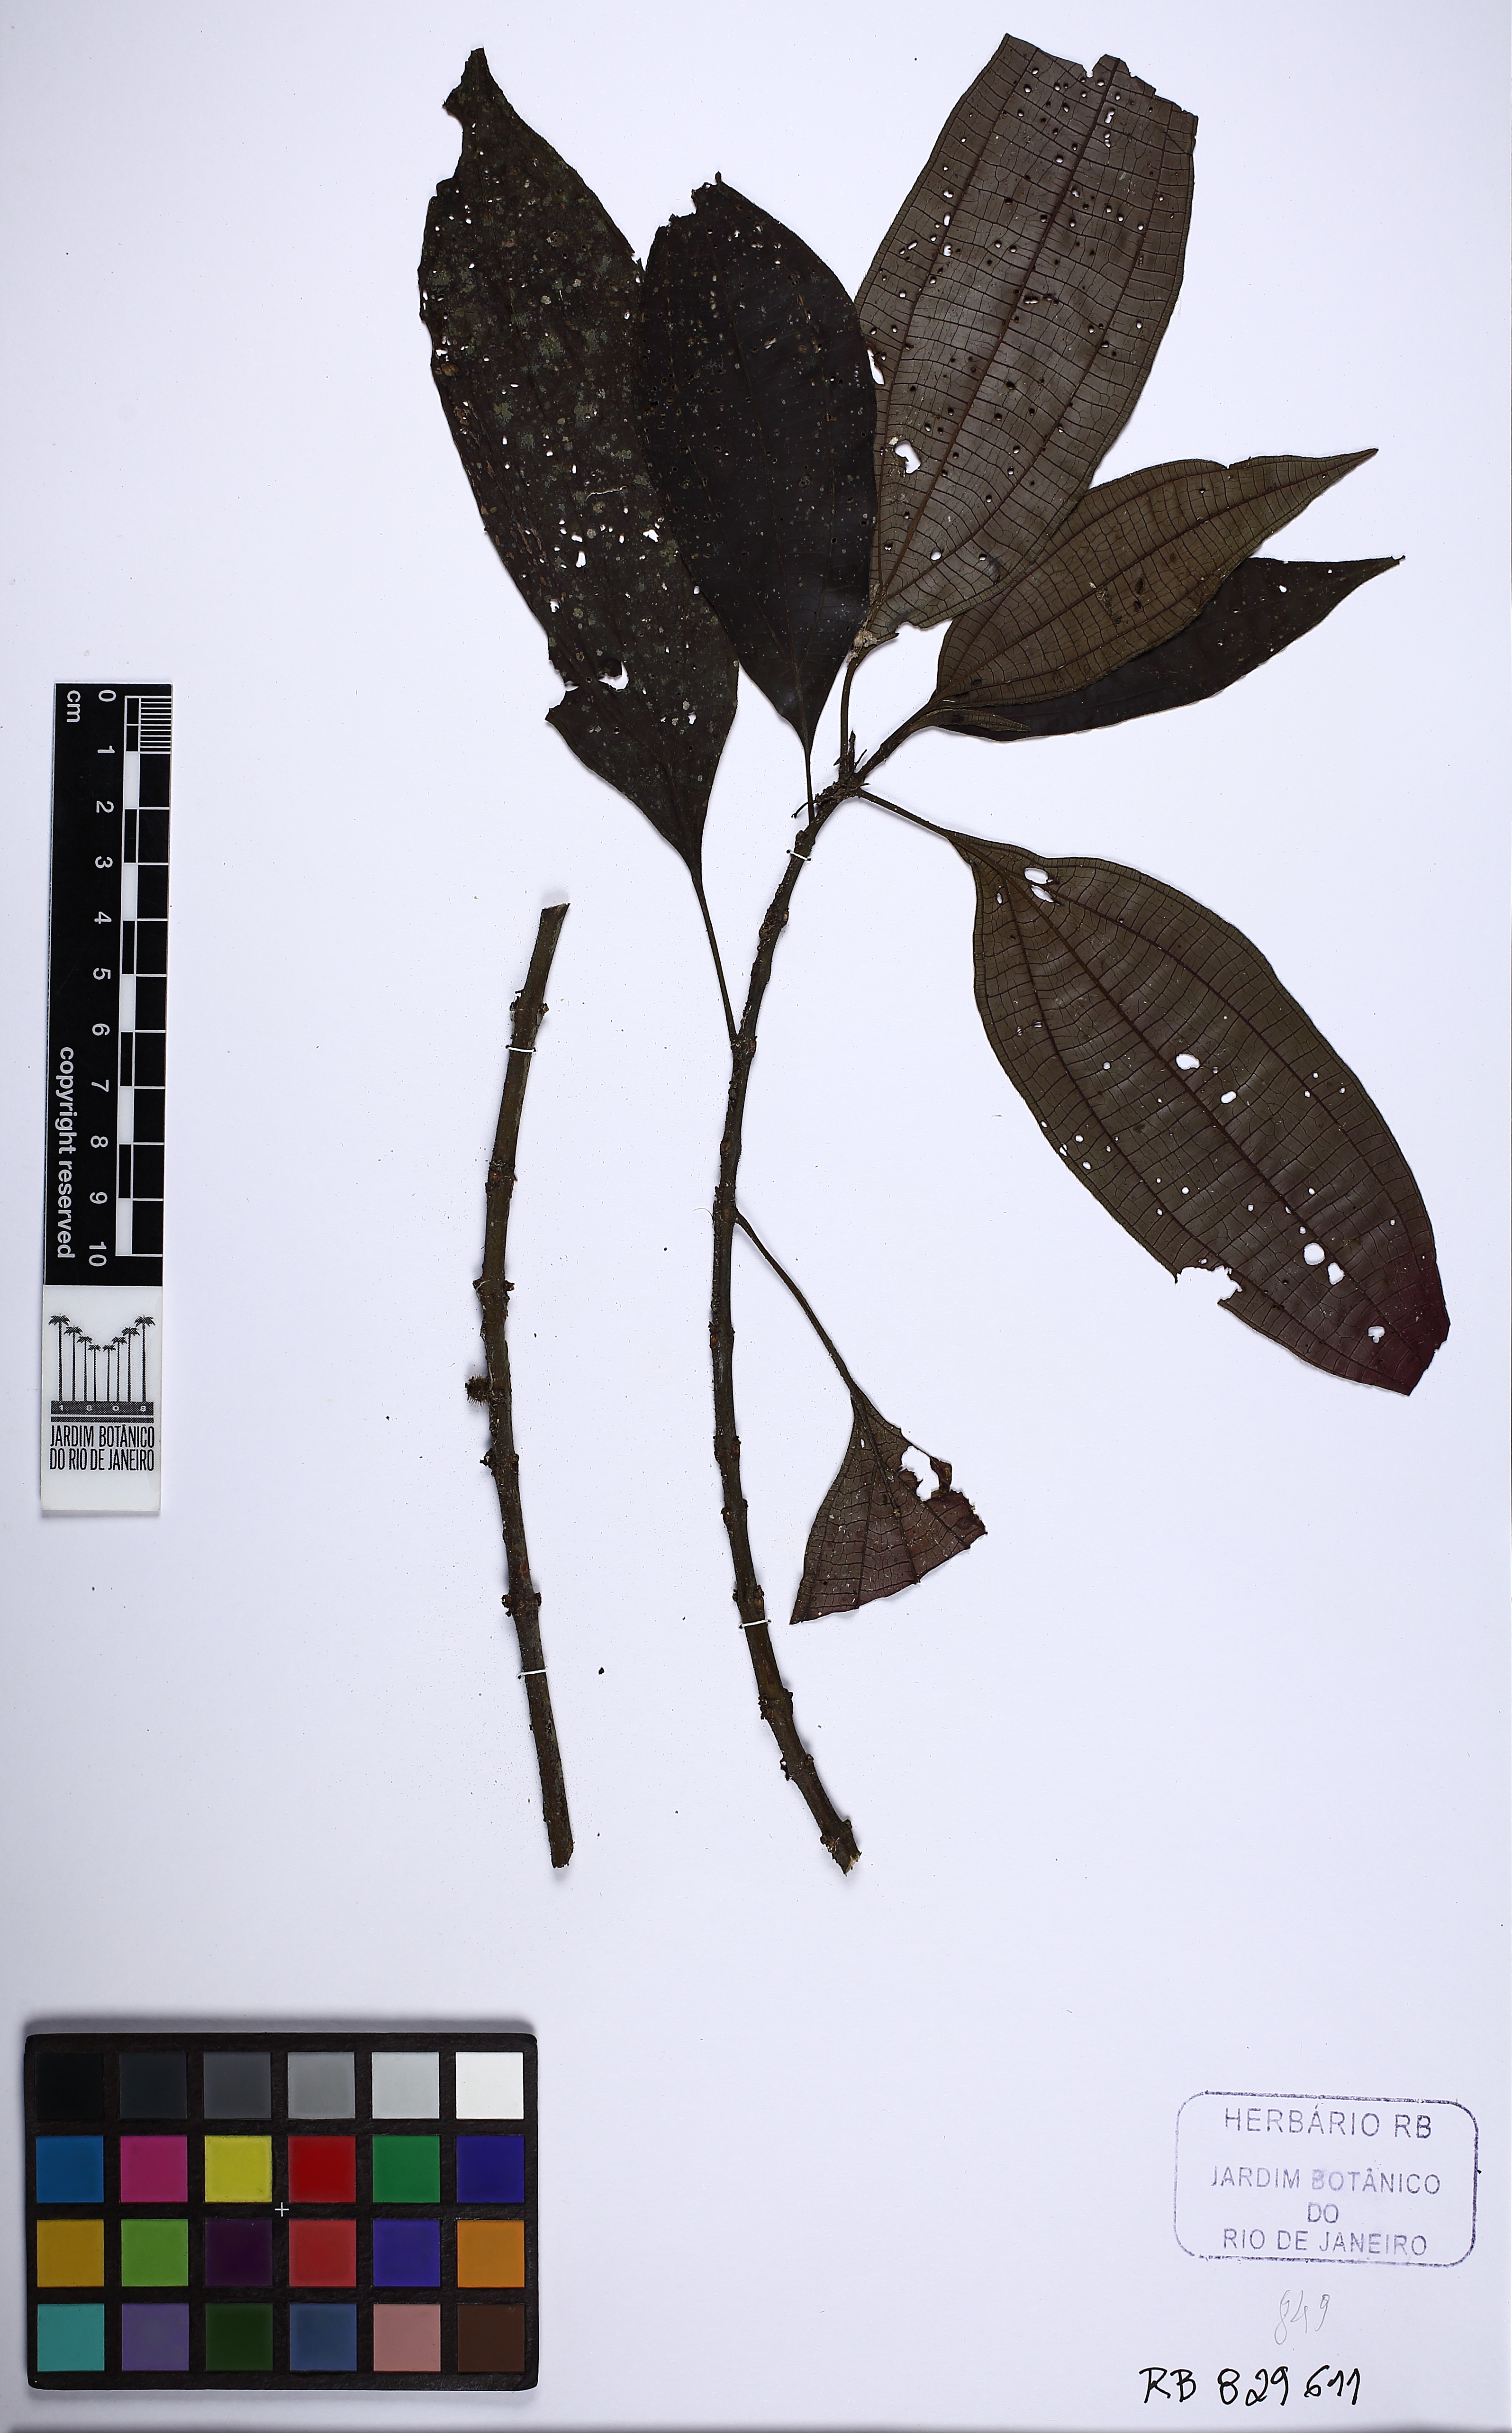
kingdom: Plantae
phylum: Tracheophyta
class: Magnoliopsida
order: Myrtales
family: Melastomataceae
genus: Miconia
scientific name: Miconia secunsanguinea
